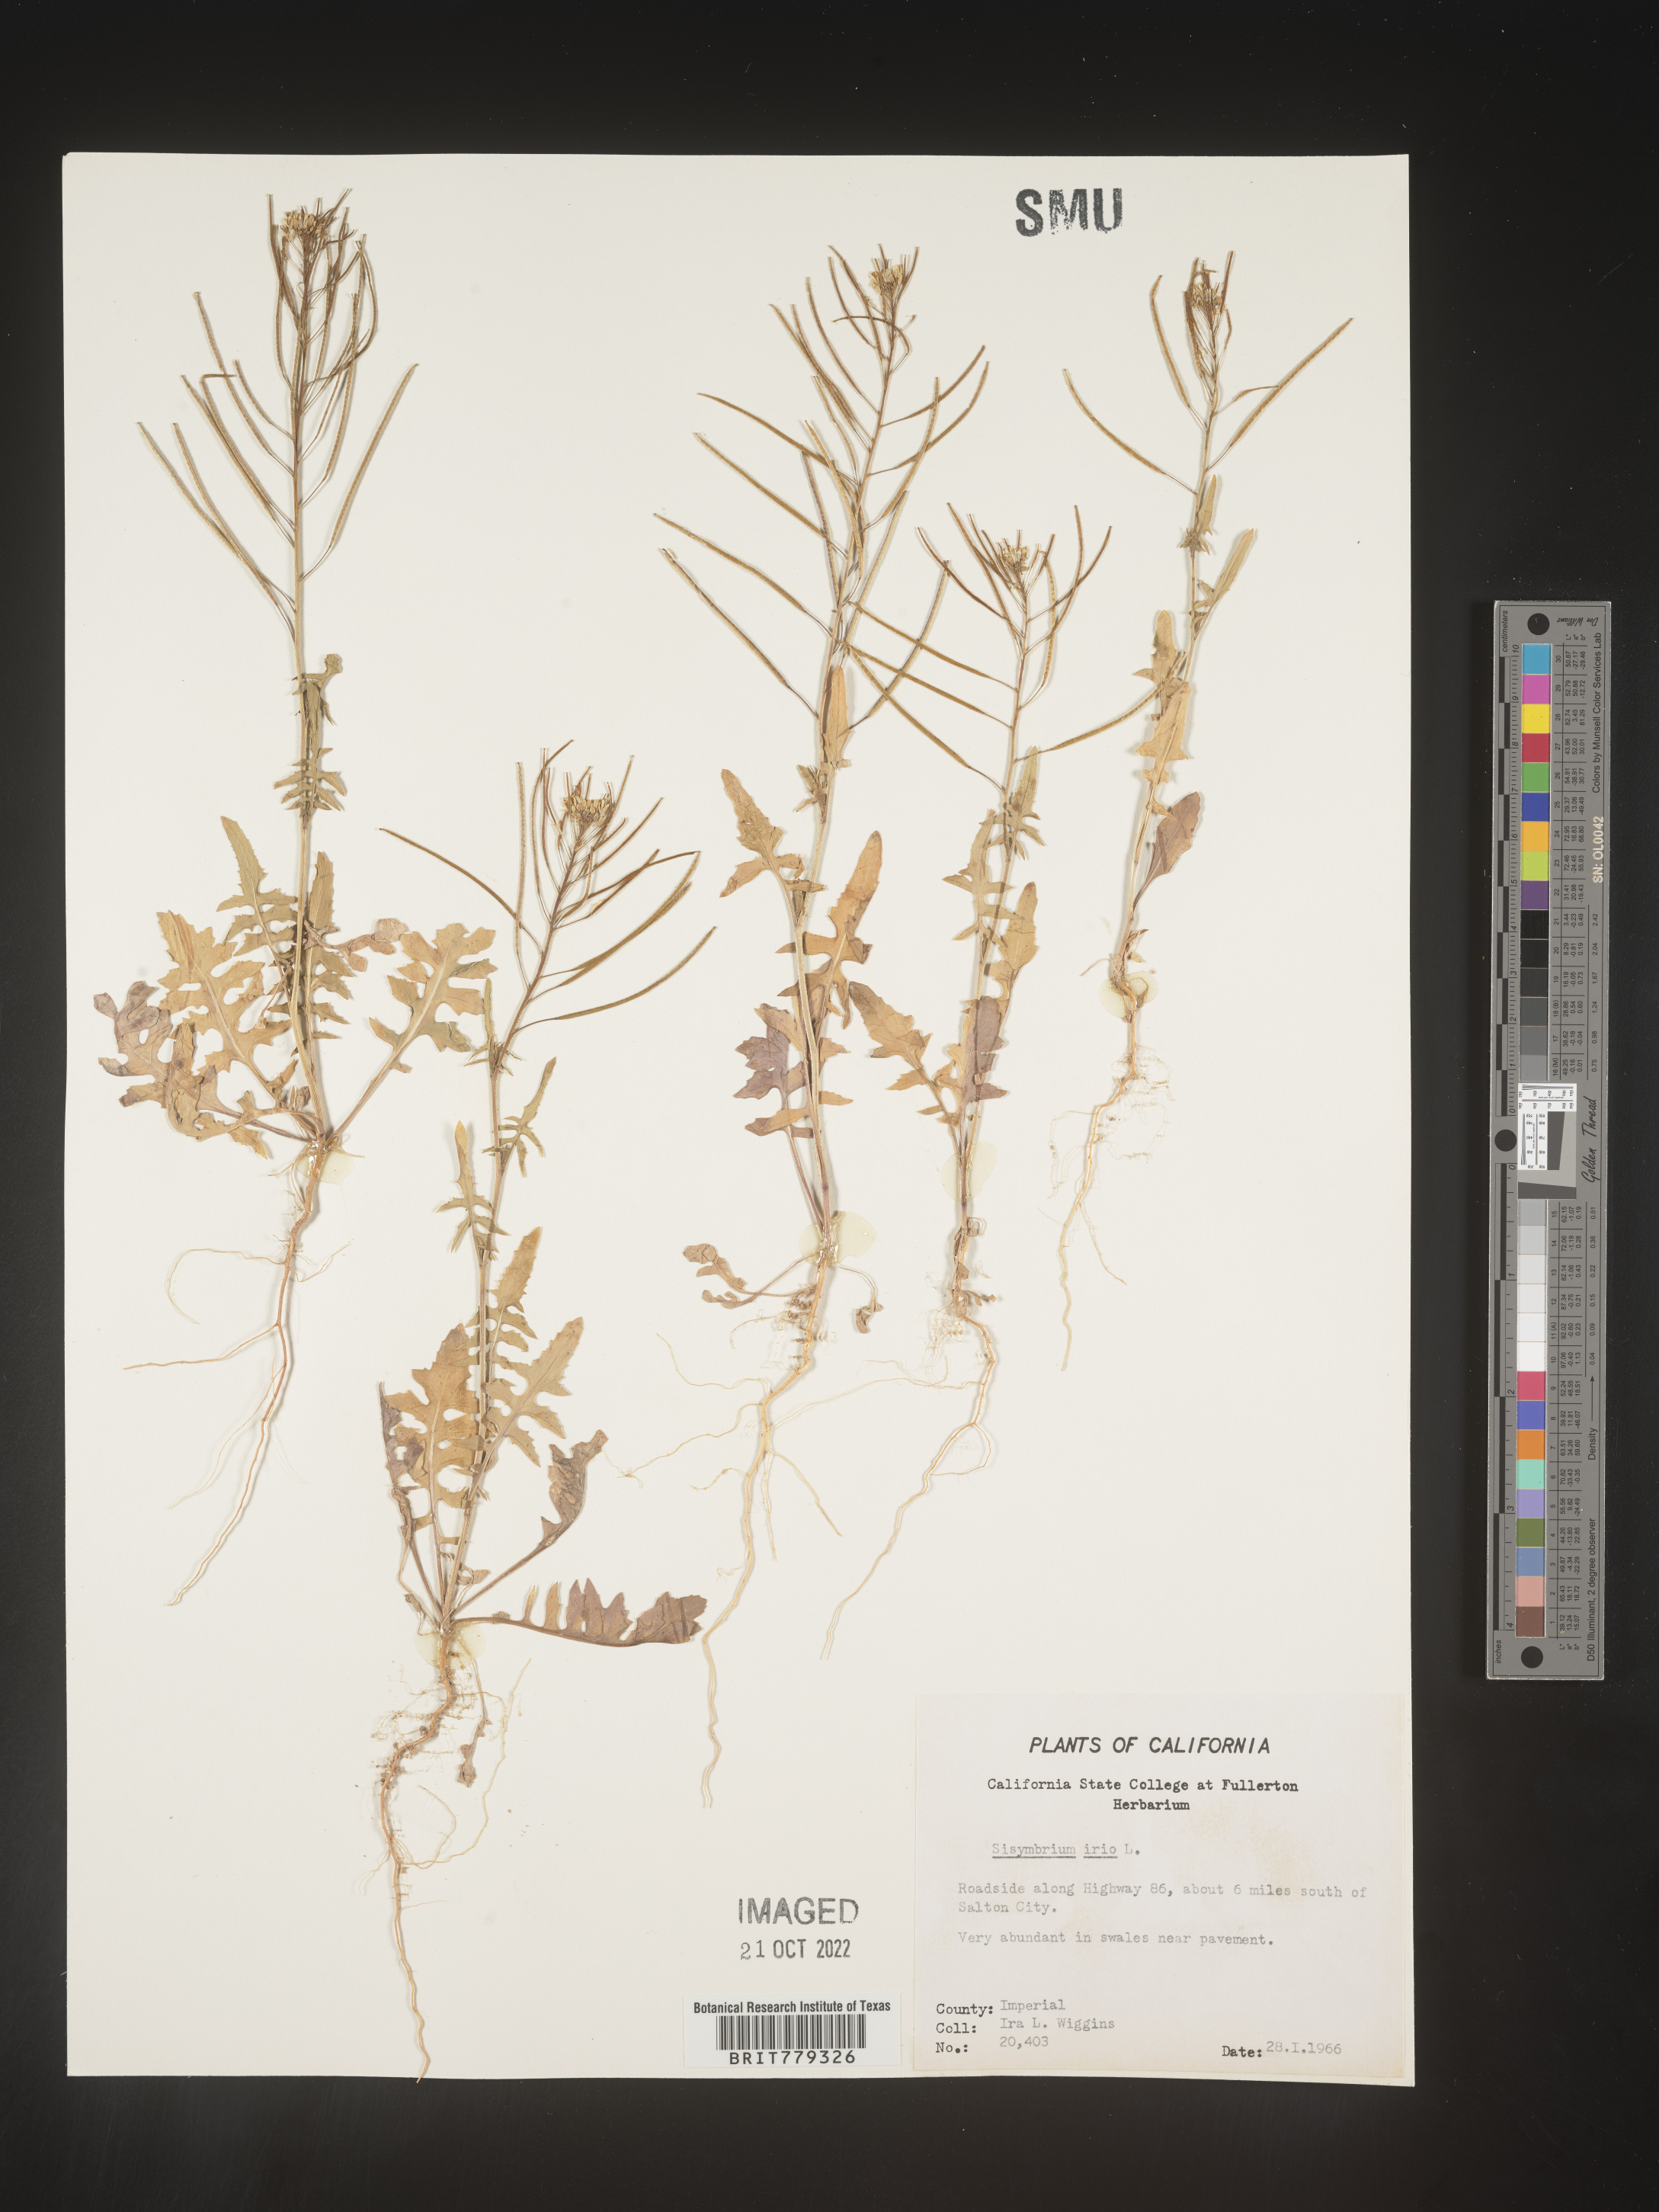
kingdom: Plantae
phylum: Tracheophyta
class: Magnoliopsida
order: Brassicales
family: Brassicaceae
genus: Sisymbrium
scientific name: Sisymbrium
